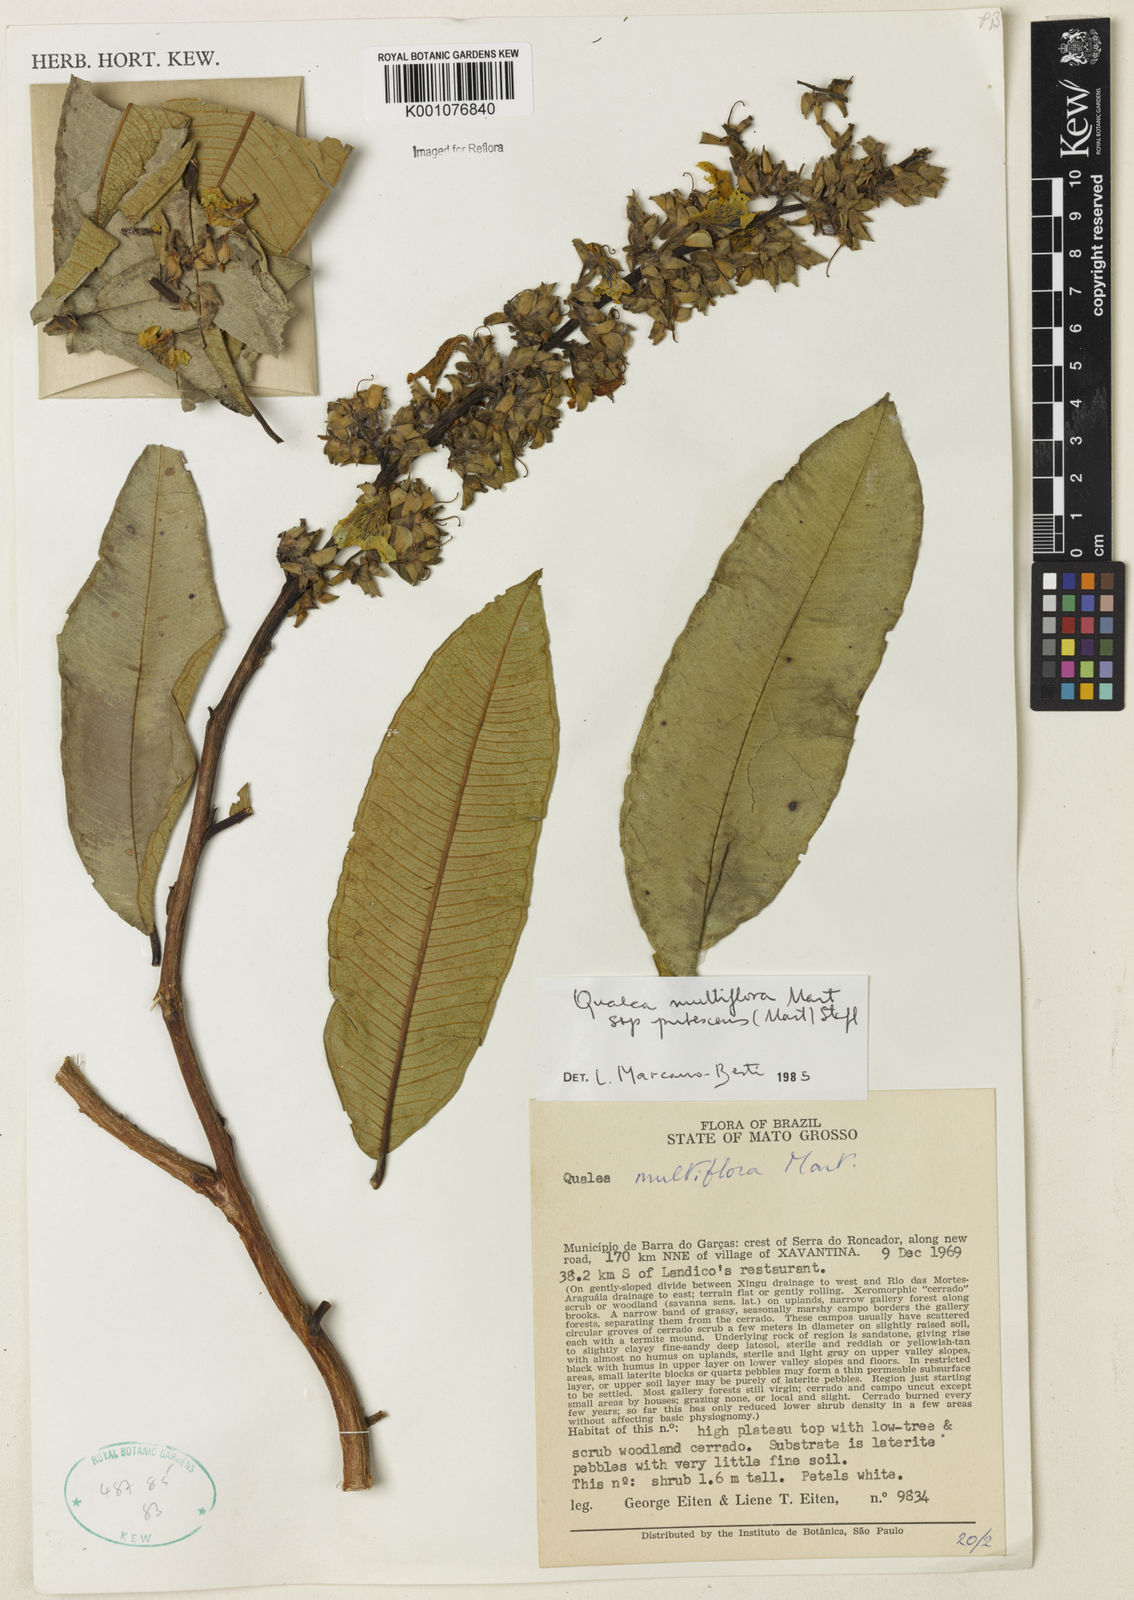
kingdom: Plantae
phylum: Tracheophyta
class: Magnoliopsida
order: Myrtales
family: Vochysiaceae
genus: Qualea
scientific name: Qualea multiflora
